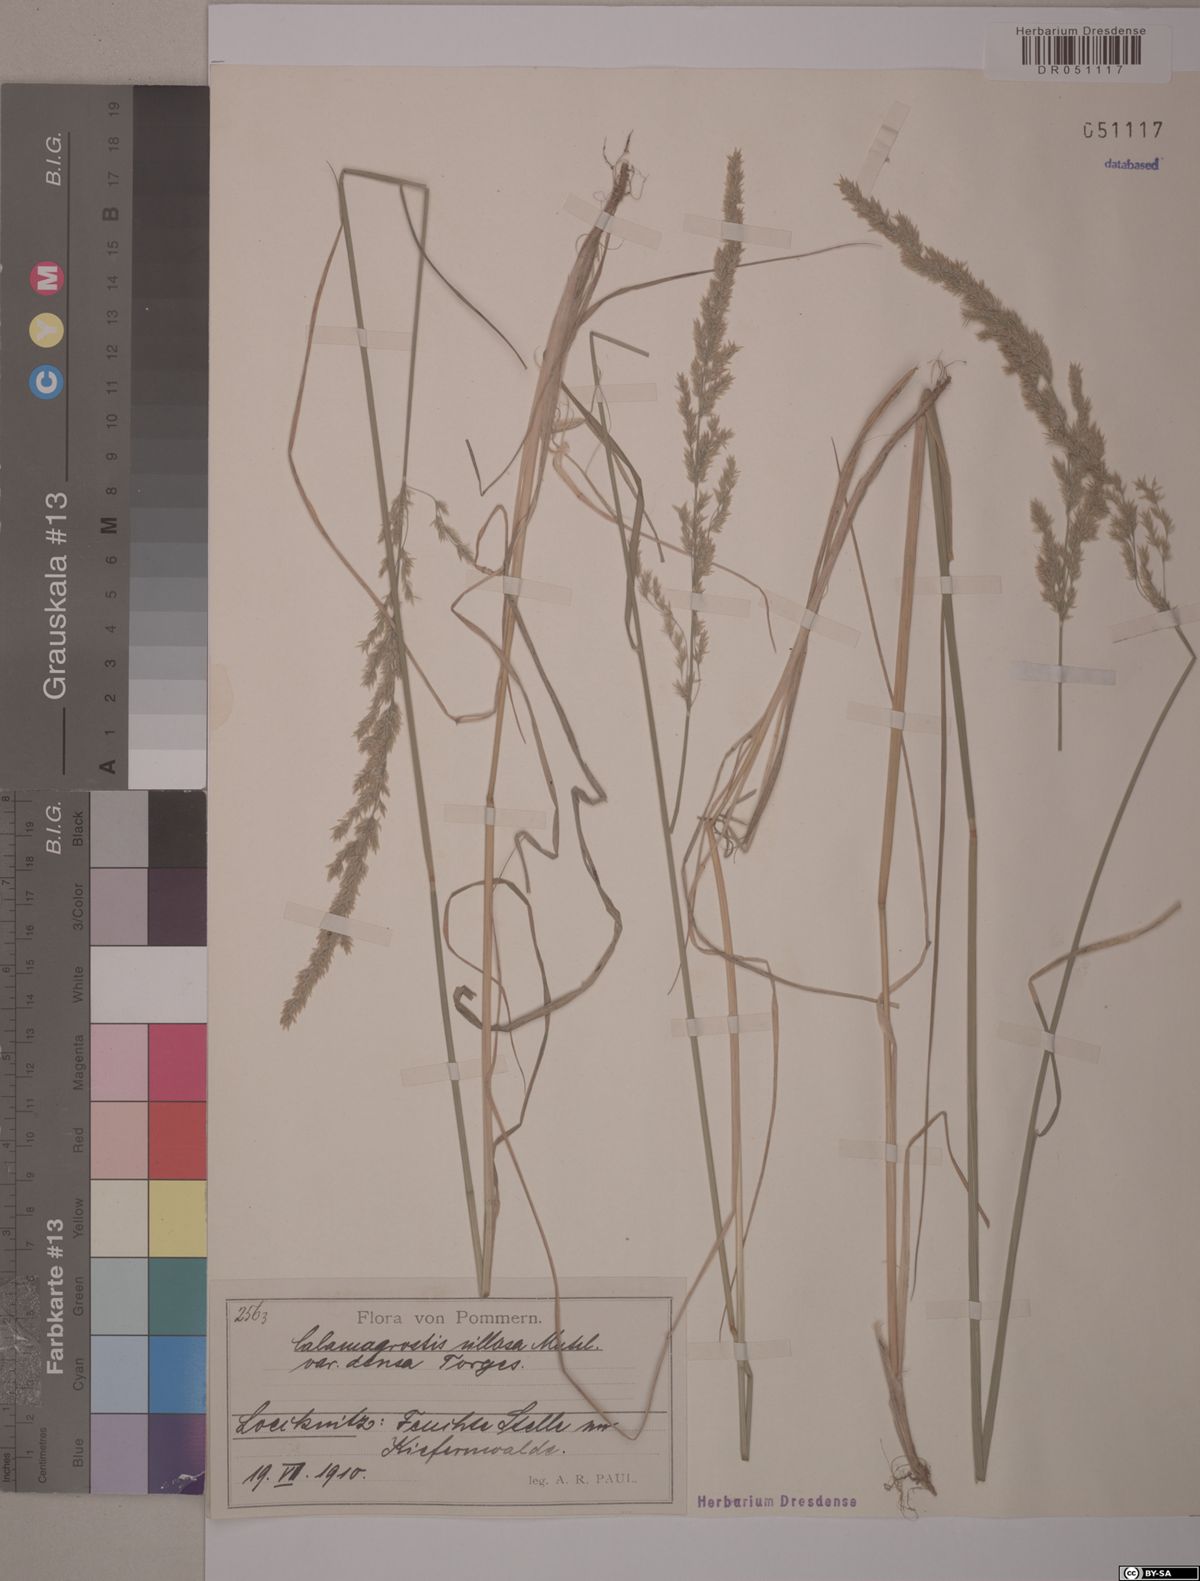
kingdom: Plantae
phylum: Tracheophyta
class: Liliopsida
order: Poales
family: Poaceae
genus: Calamagrostis
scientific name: Calamagrostis villosa
